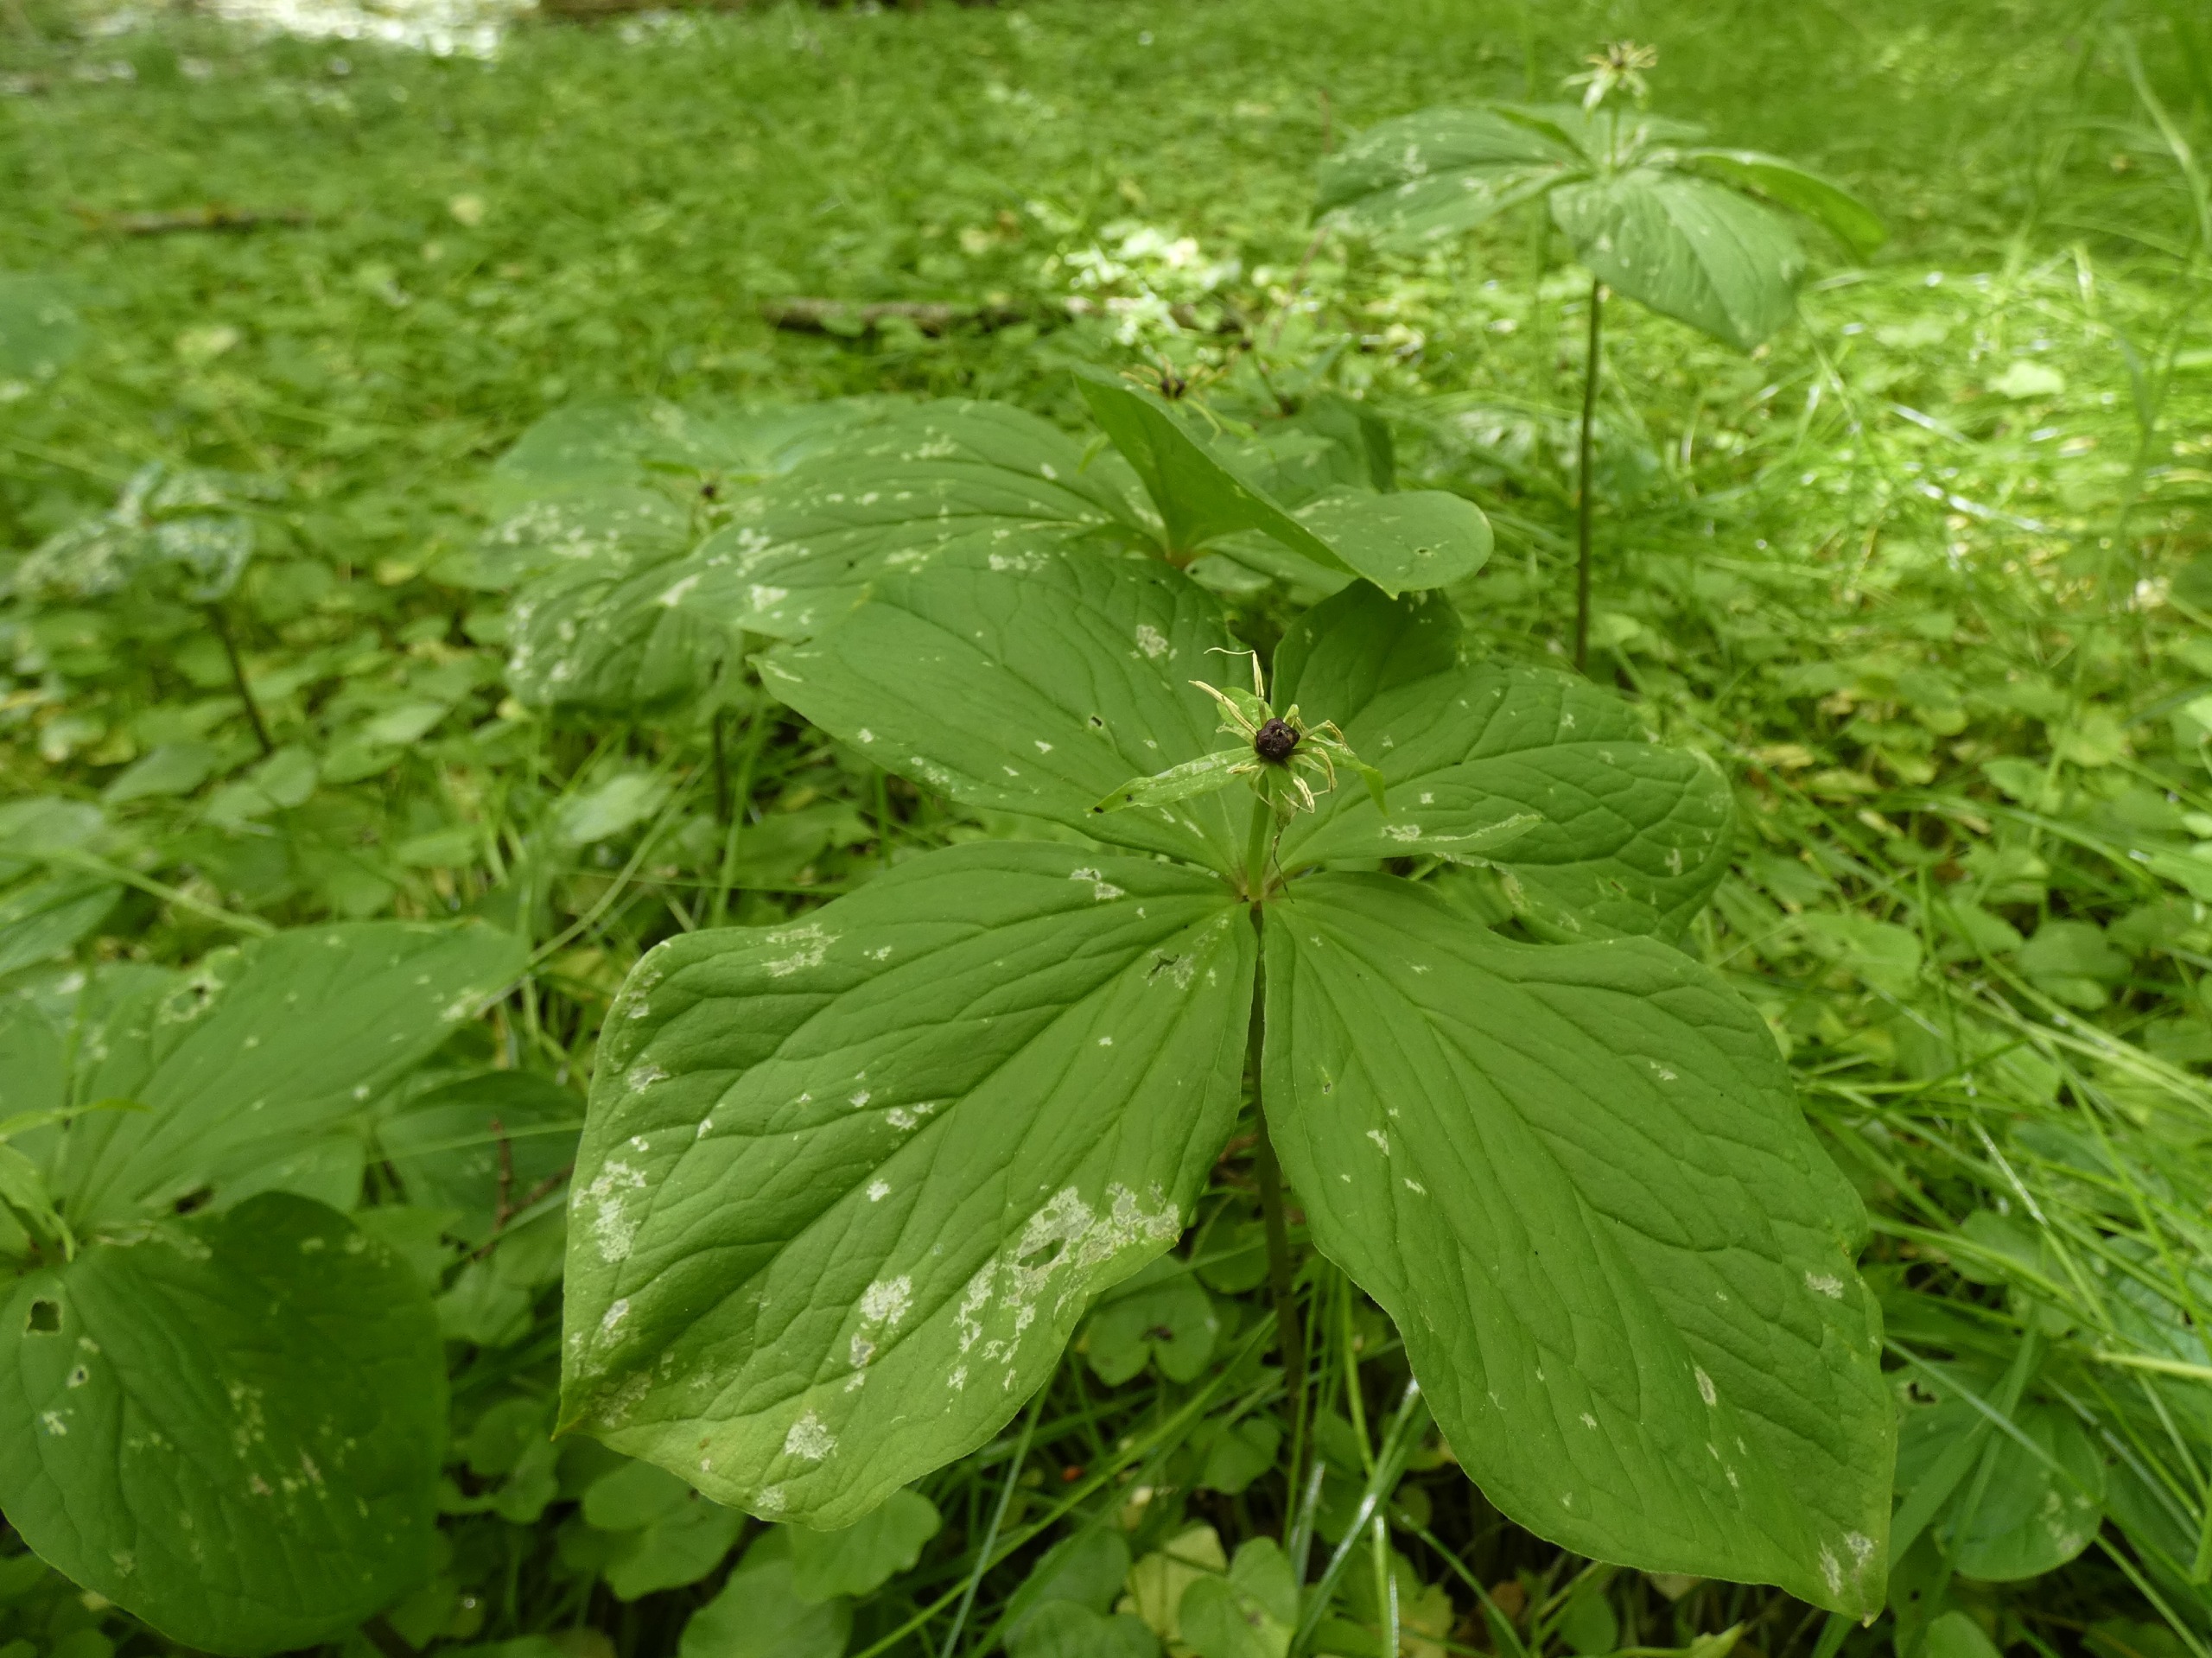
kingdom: Plantae
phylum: Tracheophyta
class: Liliopsida
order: Liliales
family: Melanthiaceae
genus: Paris
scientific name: Paris quadrifolia
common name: Firblad
